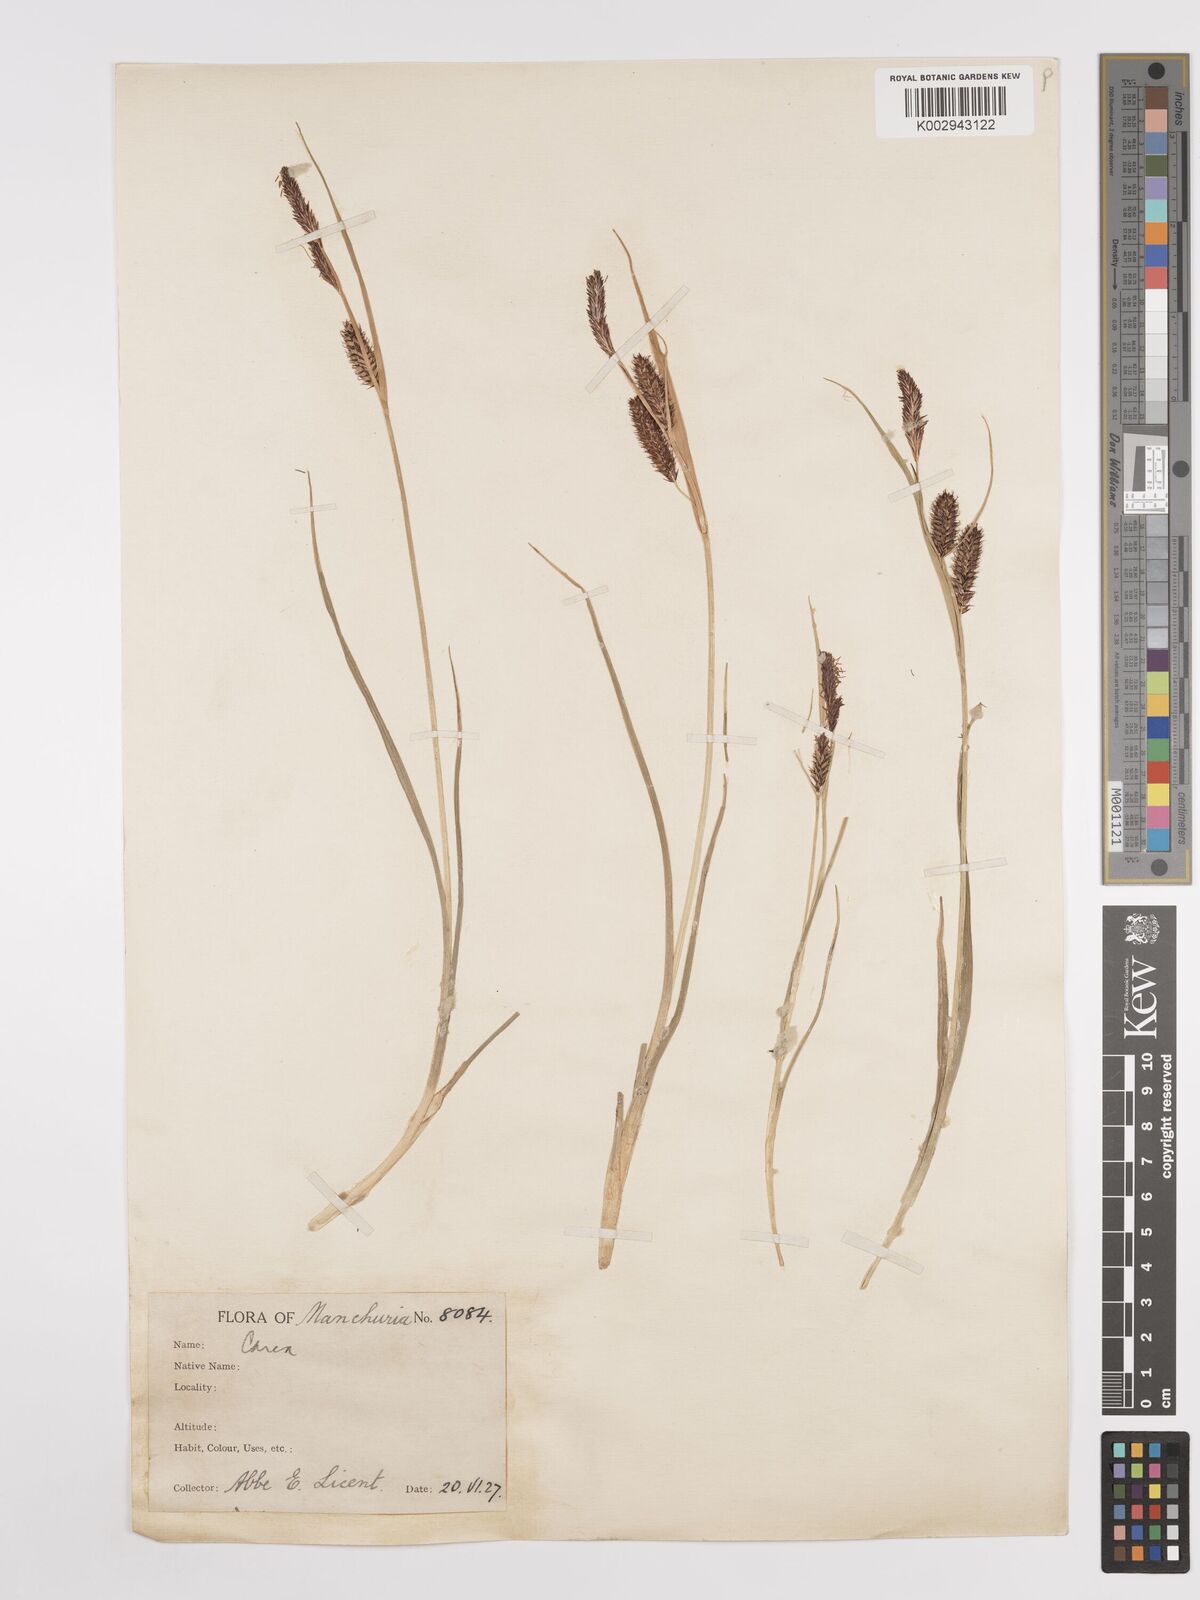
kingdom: Plantae
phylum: Tracheophyta
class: Liliopsida
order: Poales
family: Cyperaceae
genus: Carex
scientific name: Carex
